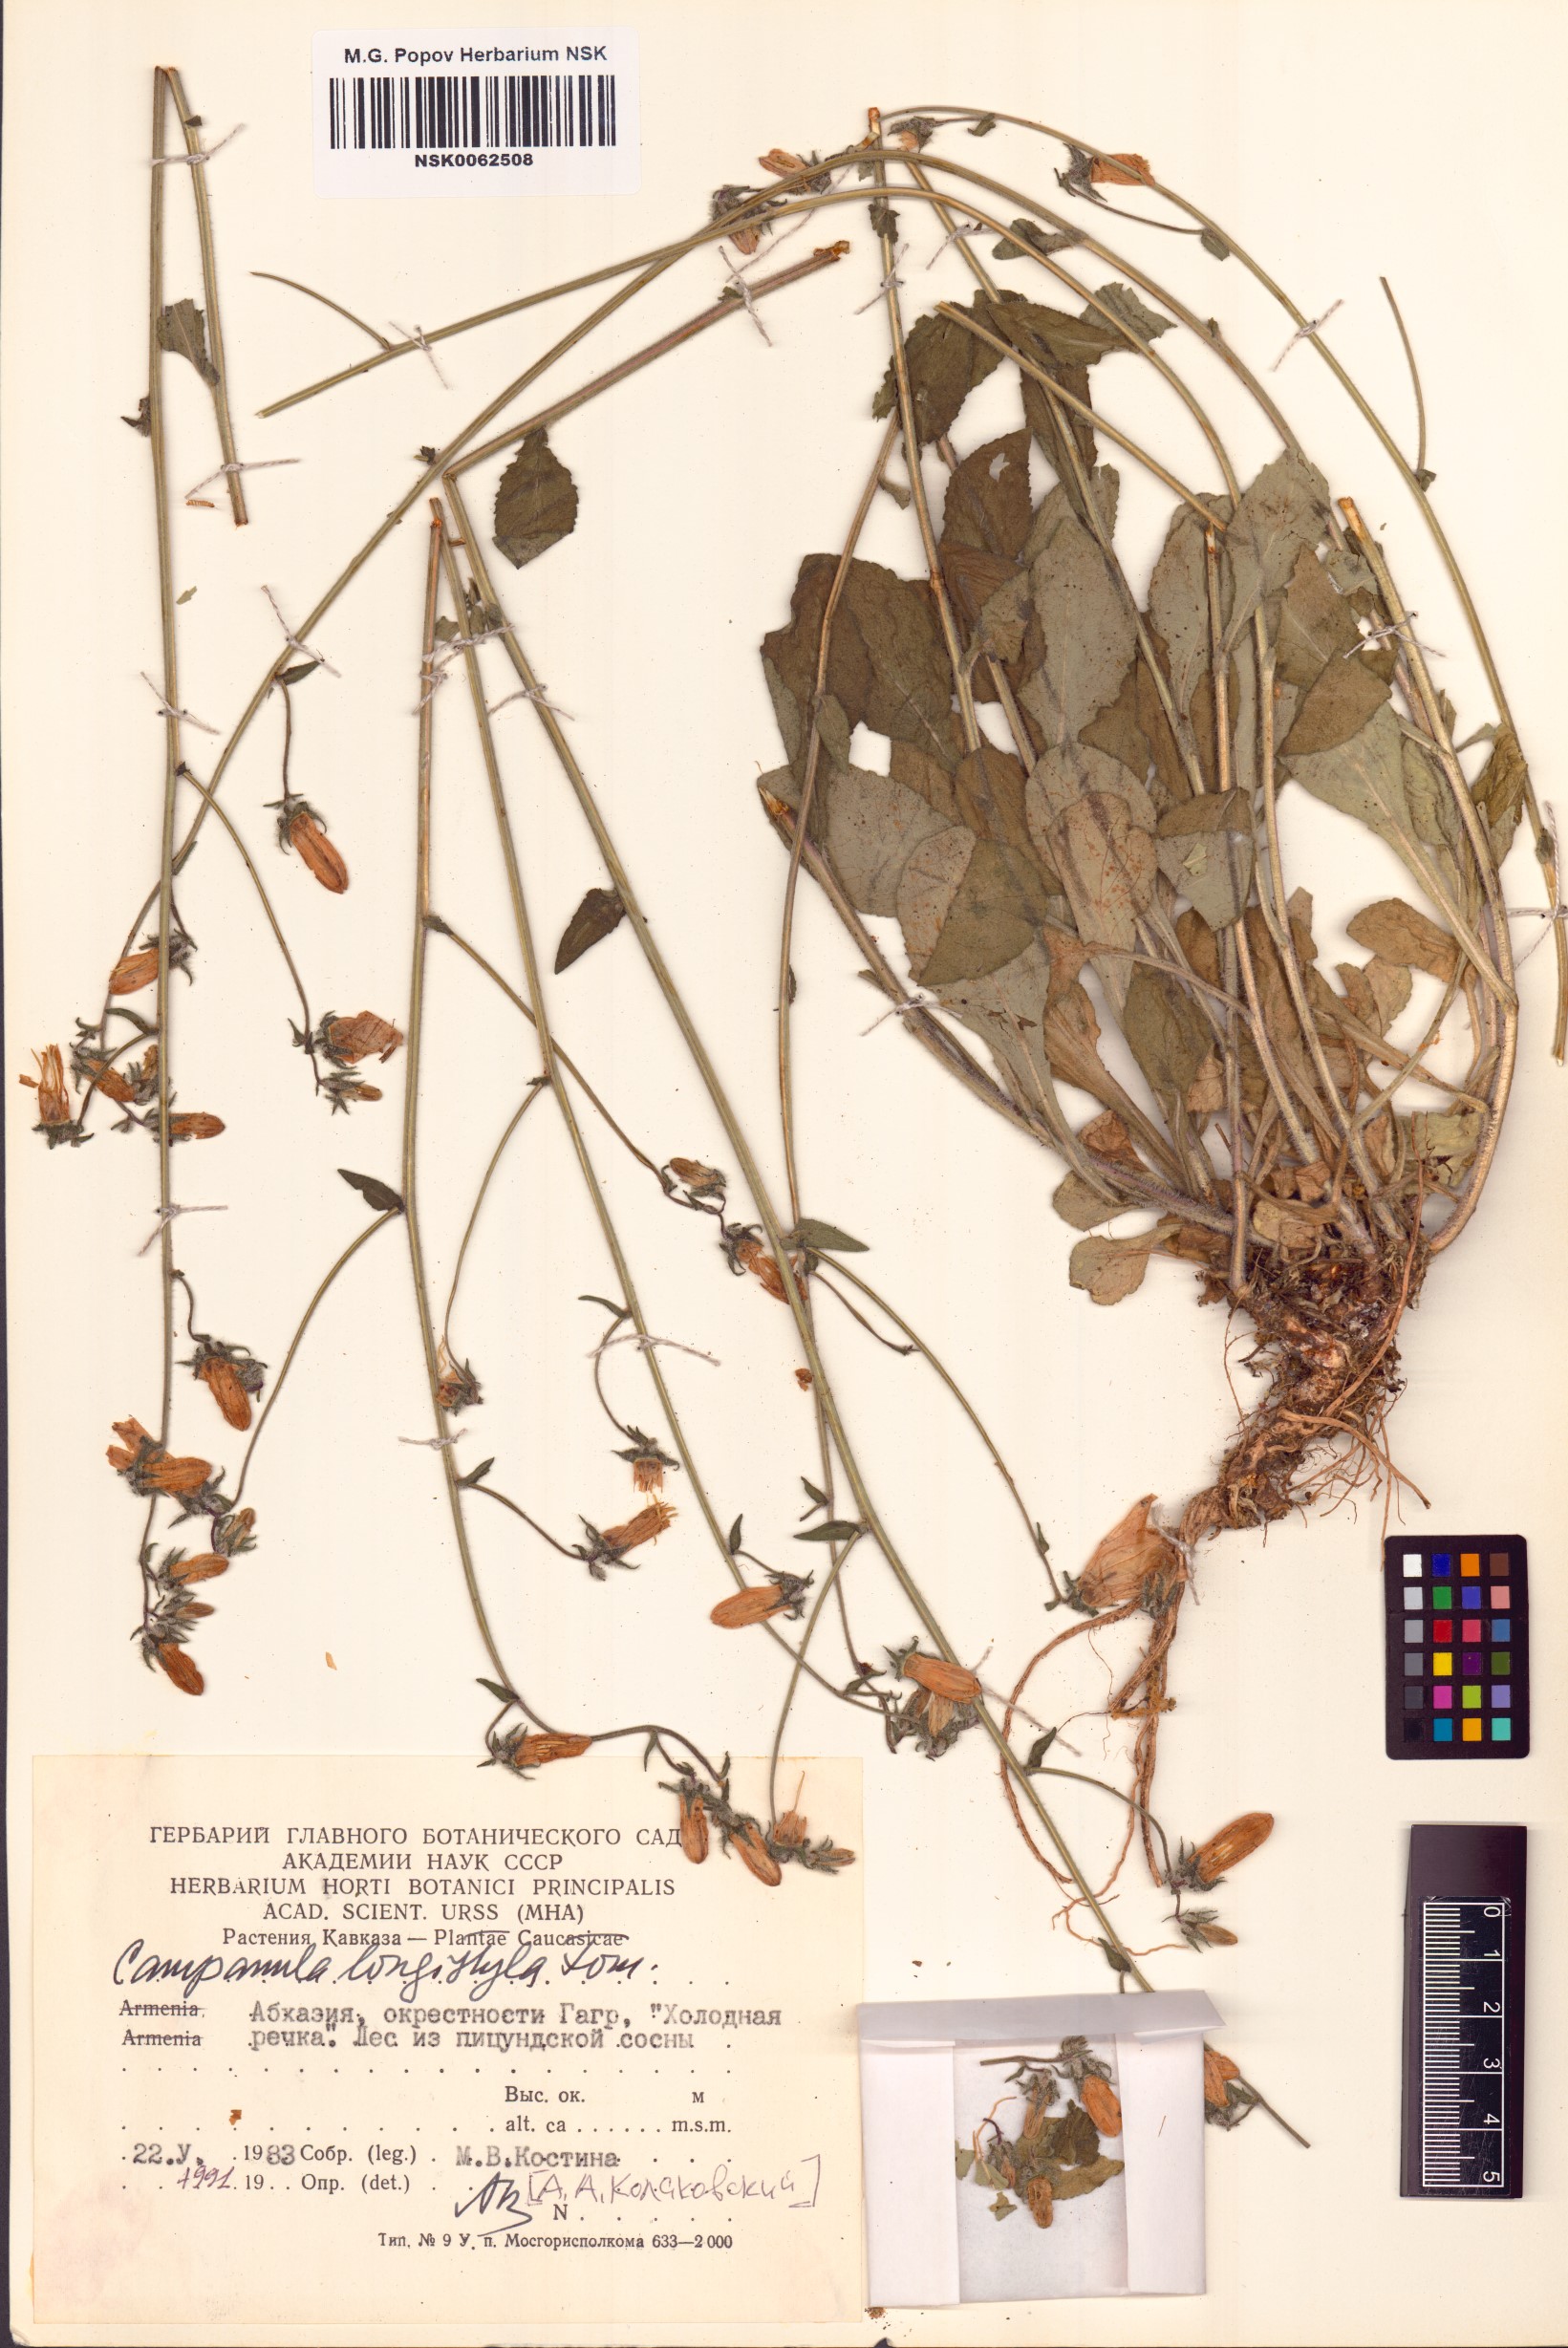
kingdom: Plantae
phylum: Tracheophyta
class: Magnoliopsida
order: Asterales
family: Campanulaceae
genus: Campanula
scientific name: Campanula longistyla
